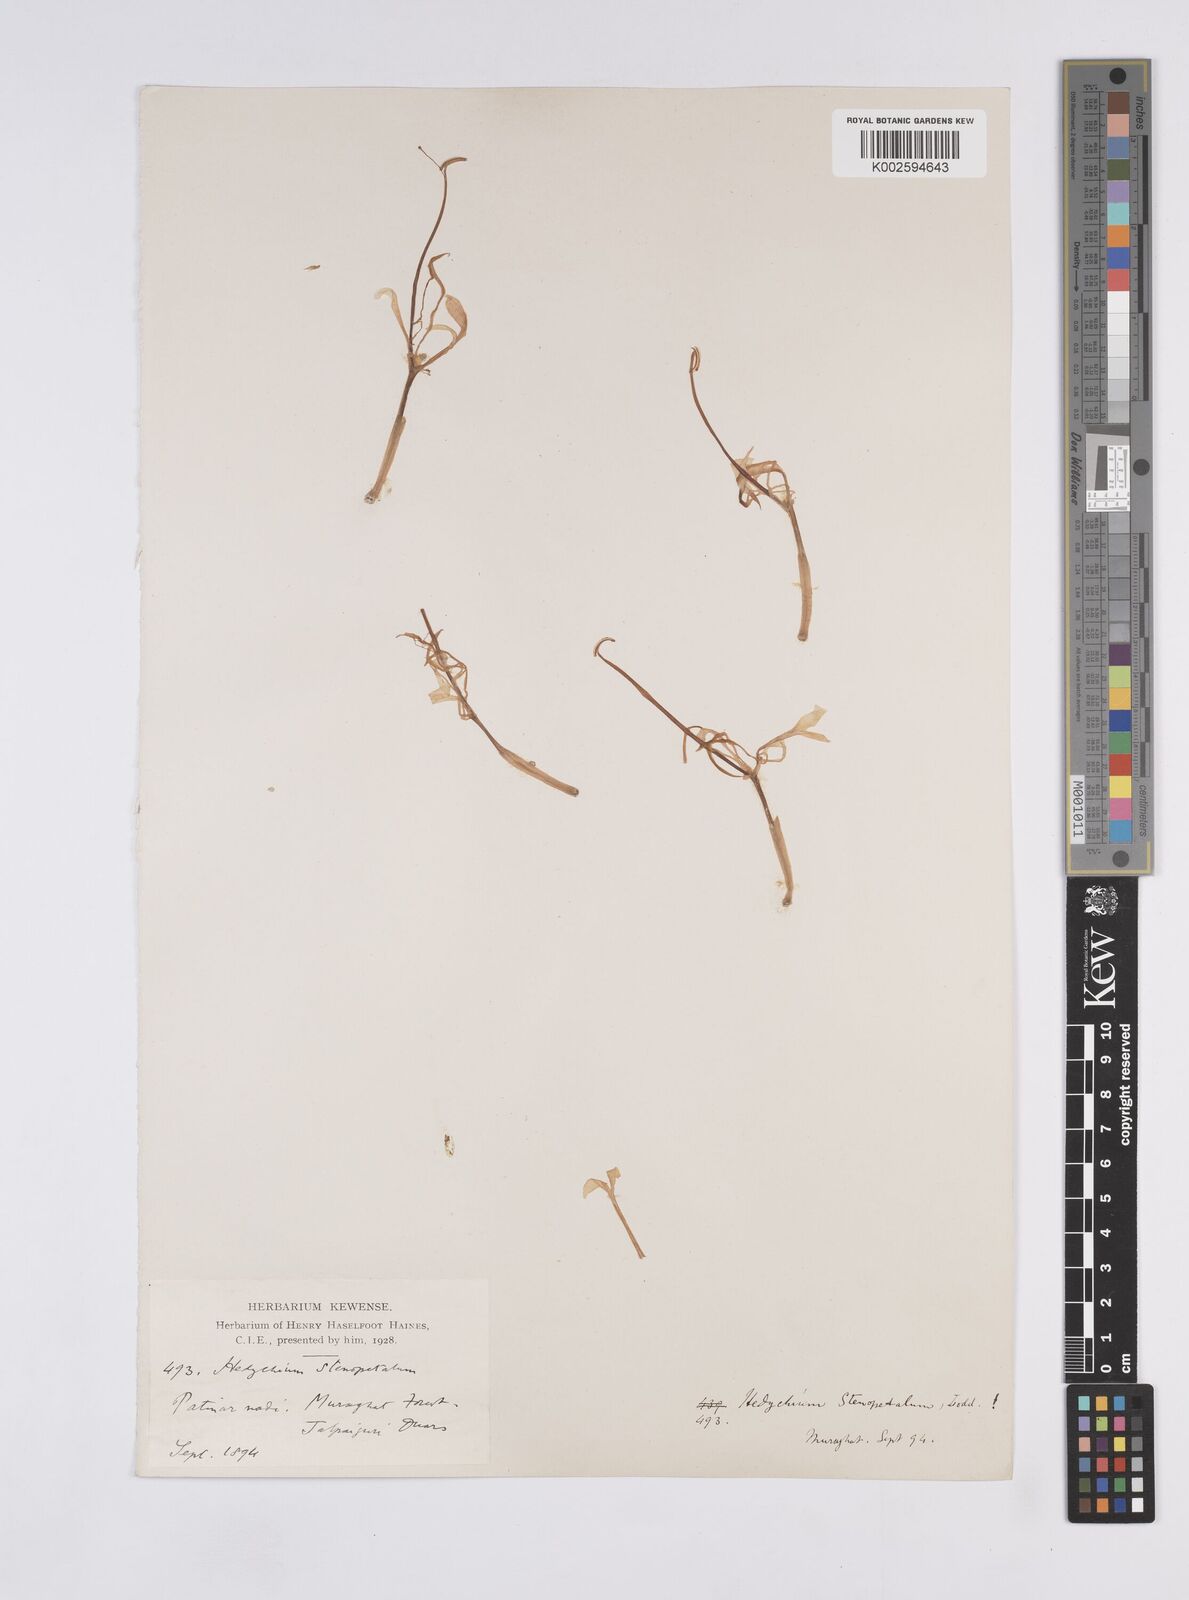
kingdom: Plantae
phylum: Tracheophyta
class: Liliopsida
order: Zingiberales
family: Zingiberaceae
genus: Hedychium
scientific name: Hedychium stenopetalum
